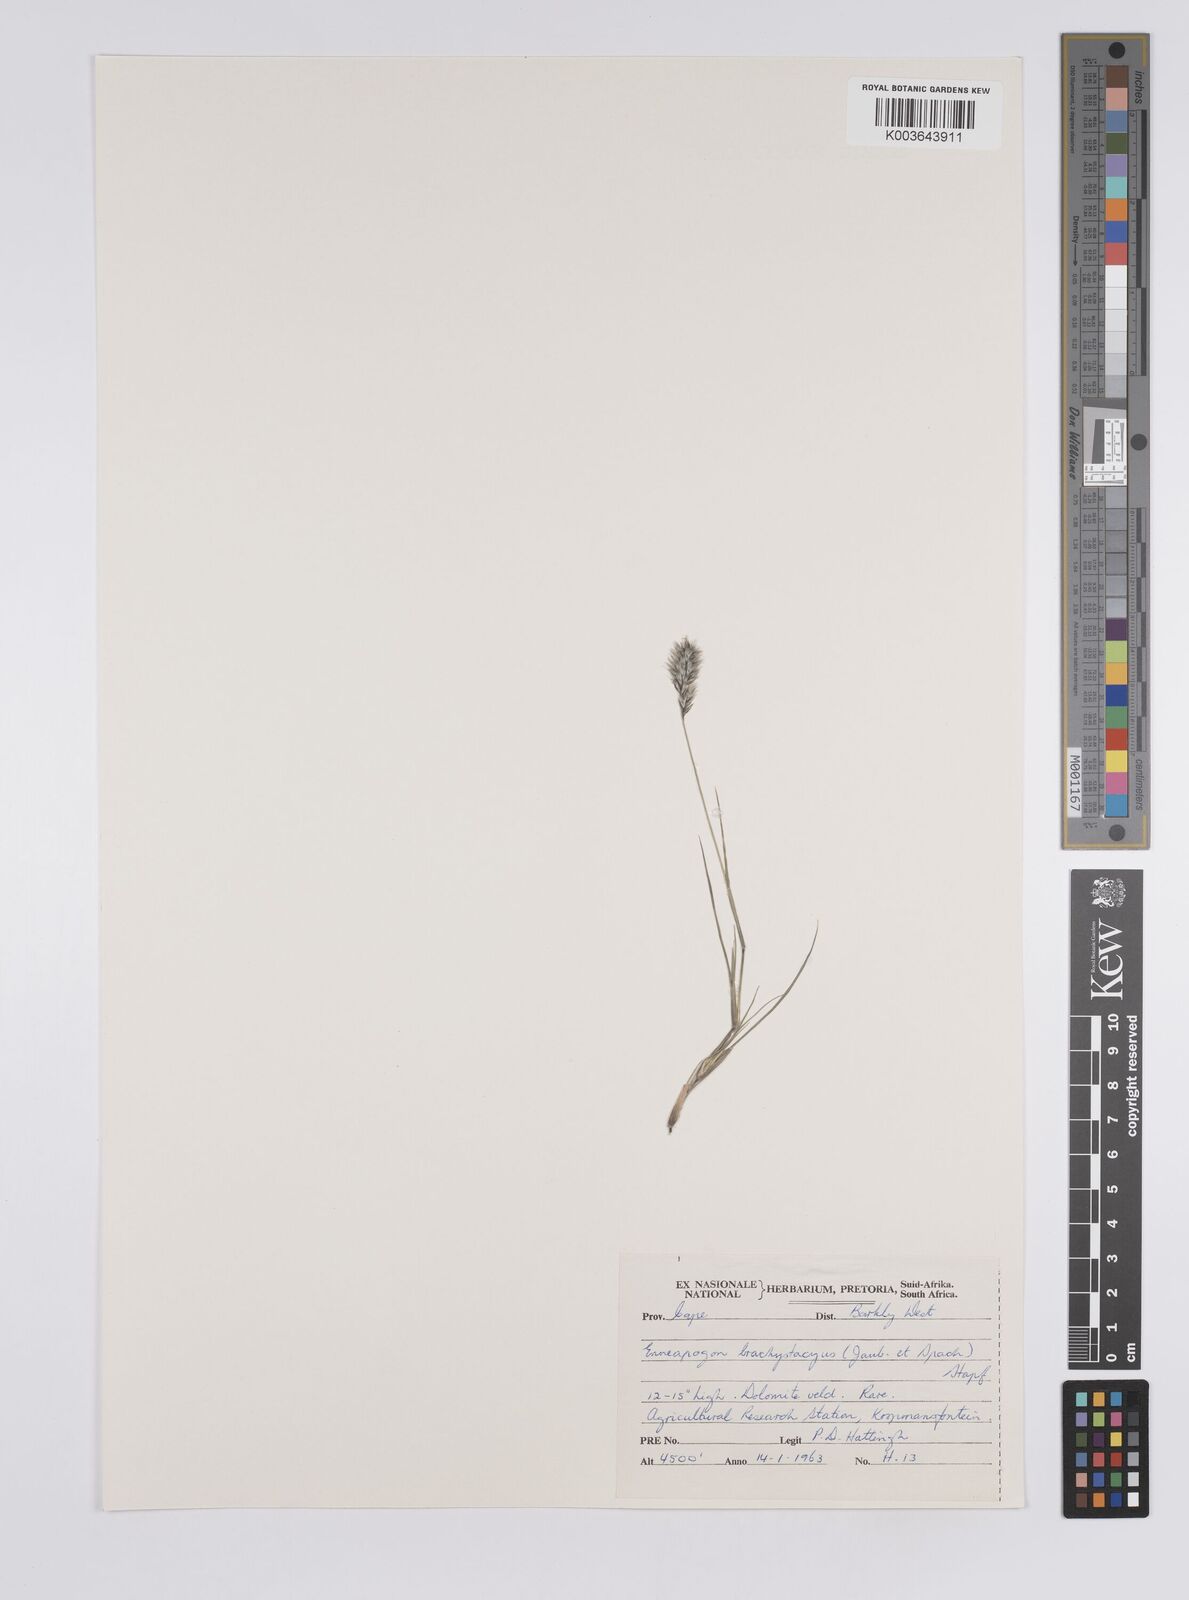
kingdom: Plantae
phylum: Tracheophyta
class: Liliopsida
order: Poales
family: Poaceae
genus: Enneapogon
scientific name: Enneapogon desvauxii
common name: Feather pappus grass
